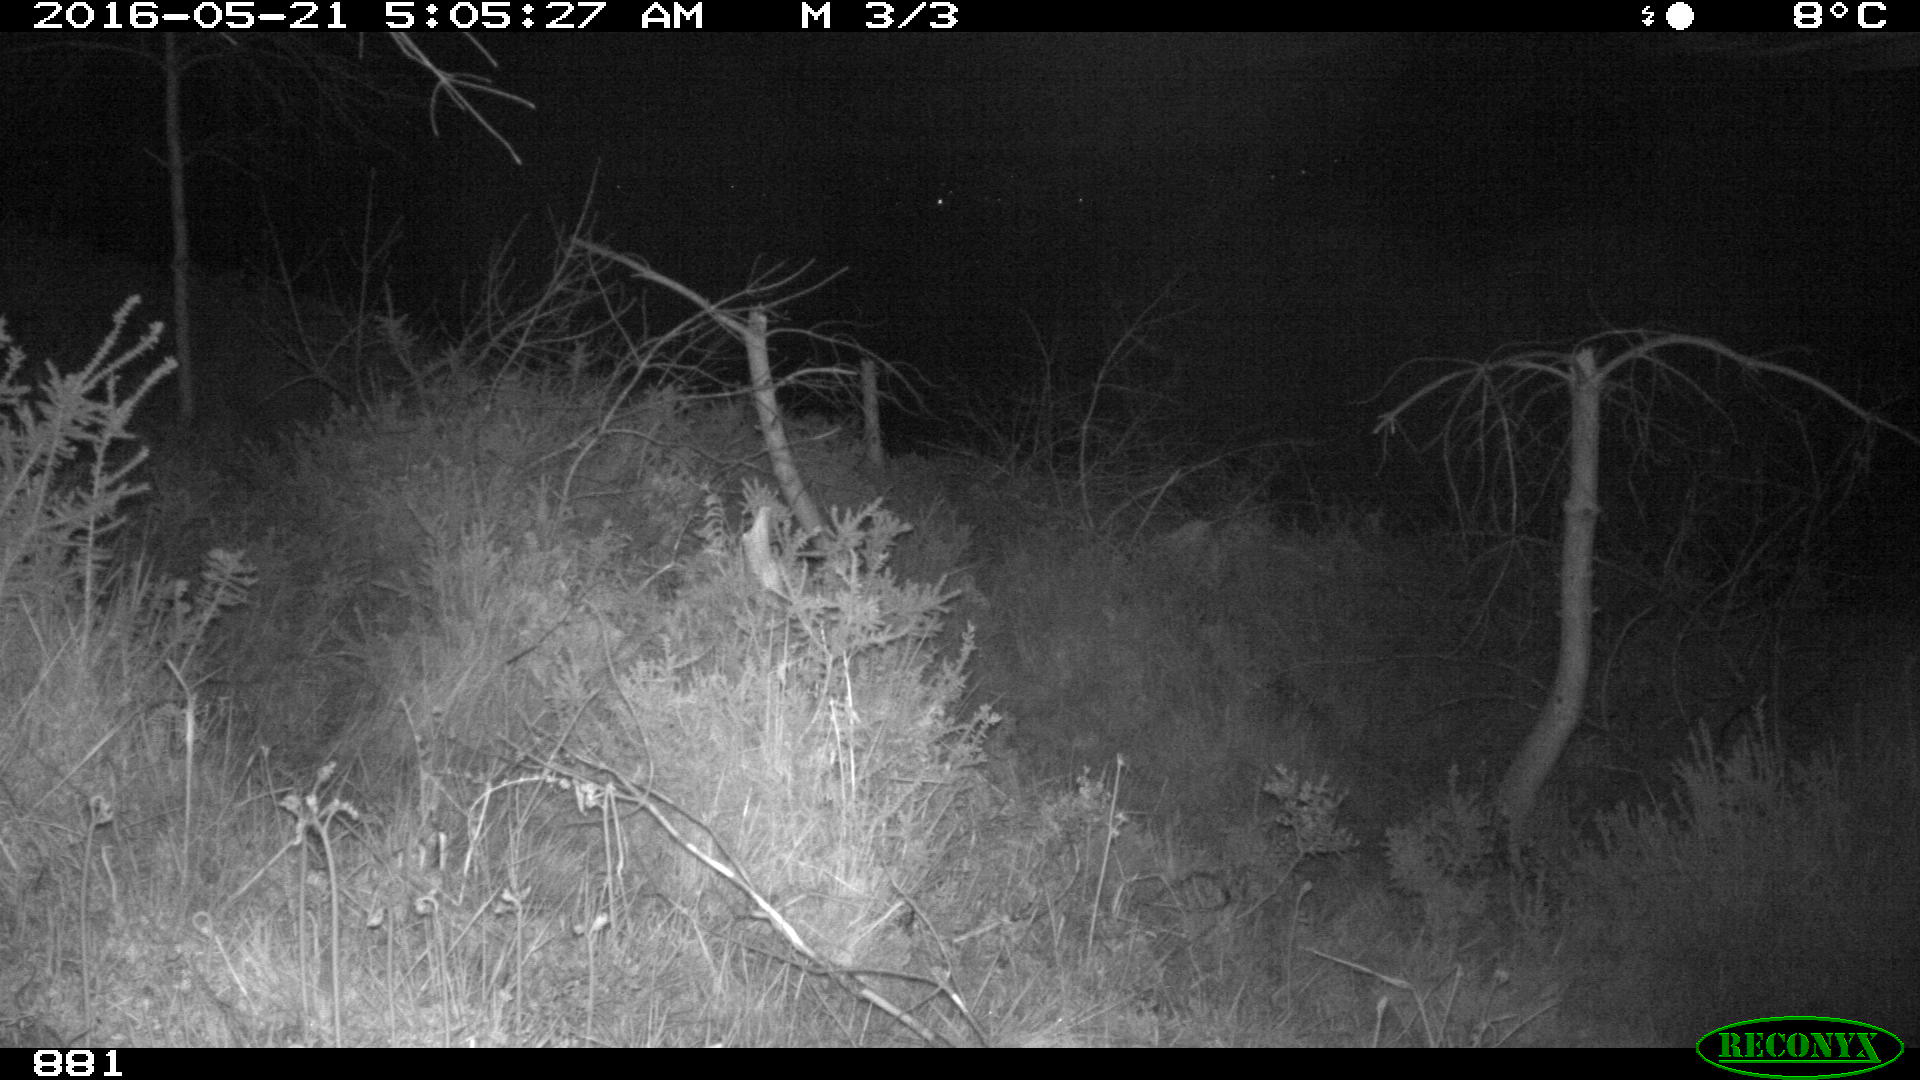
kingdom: Animalia
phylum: Chordata
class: Mammalia
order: Perissodactyla
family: Equidae
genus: Equus
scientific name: Equus caballus
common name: Horse
